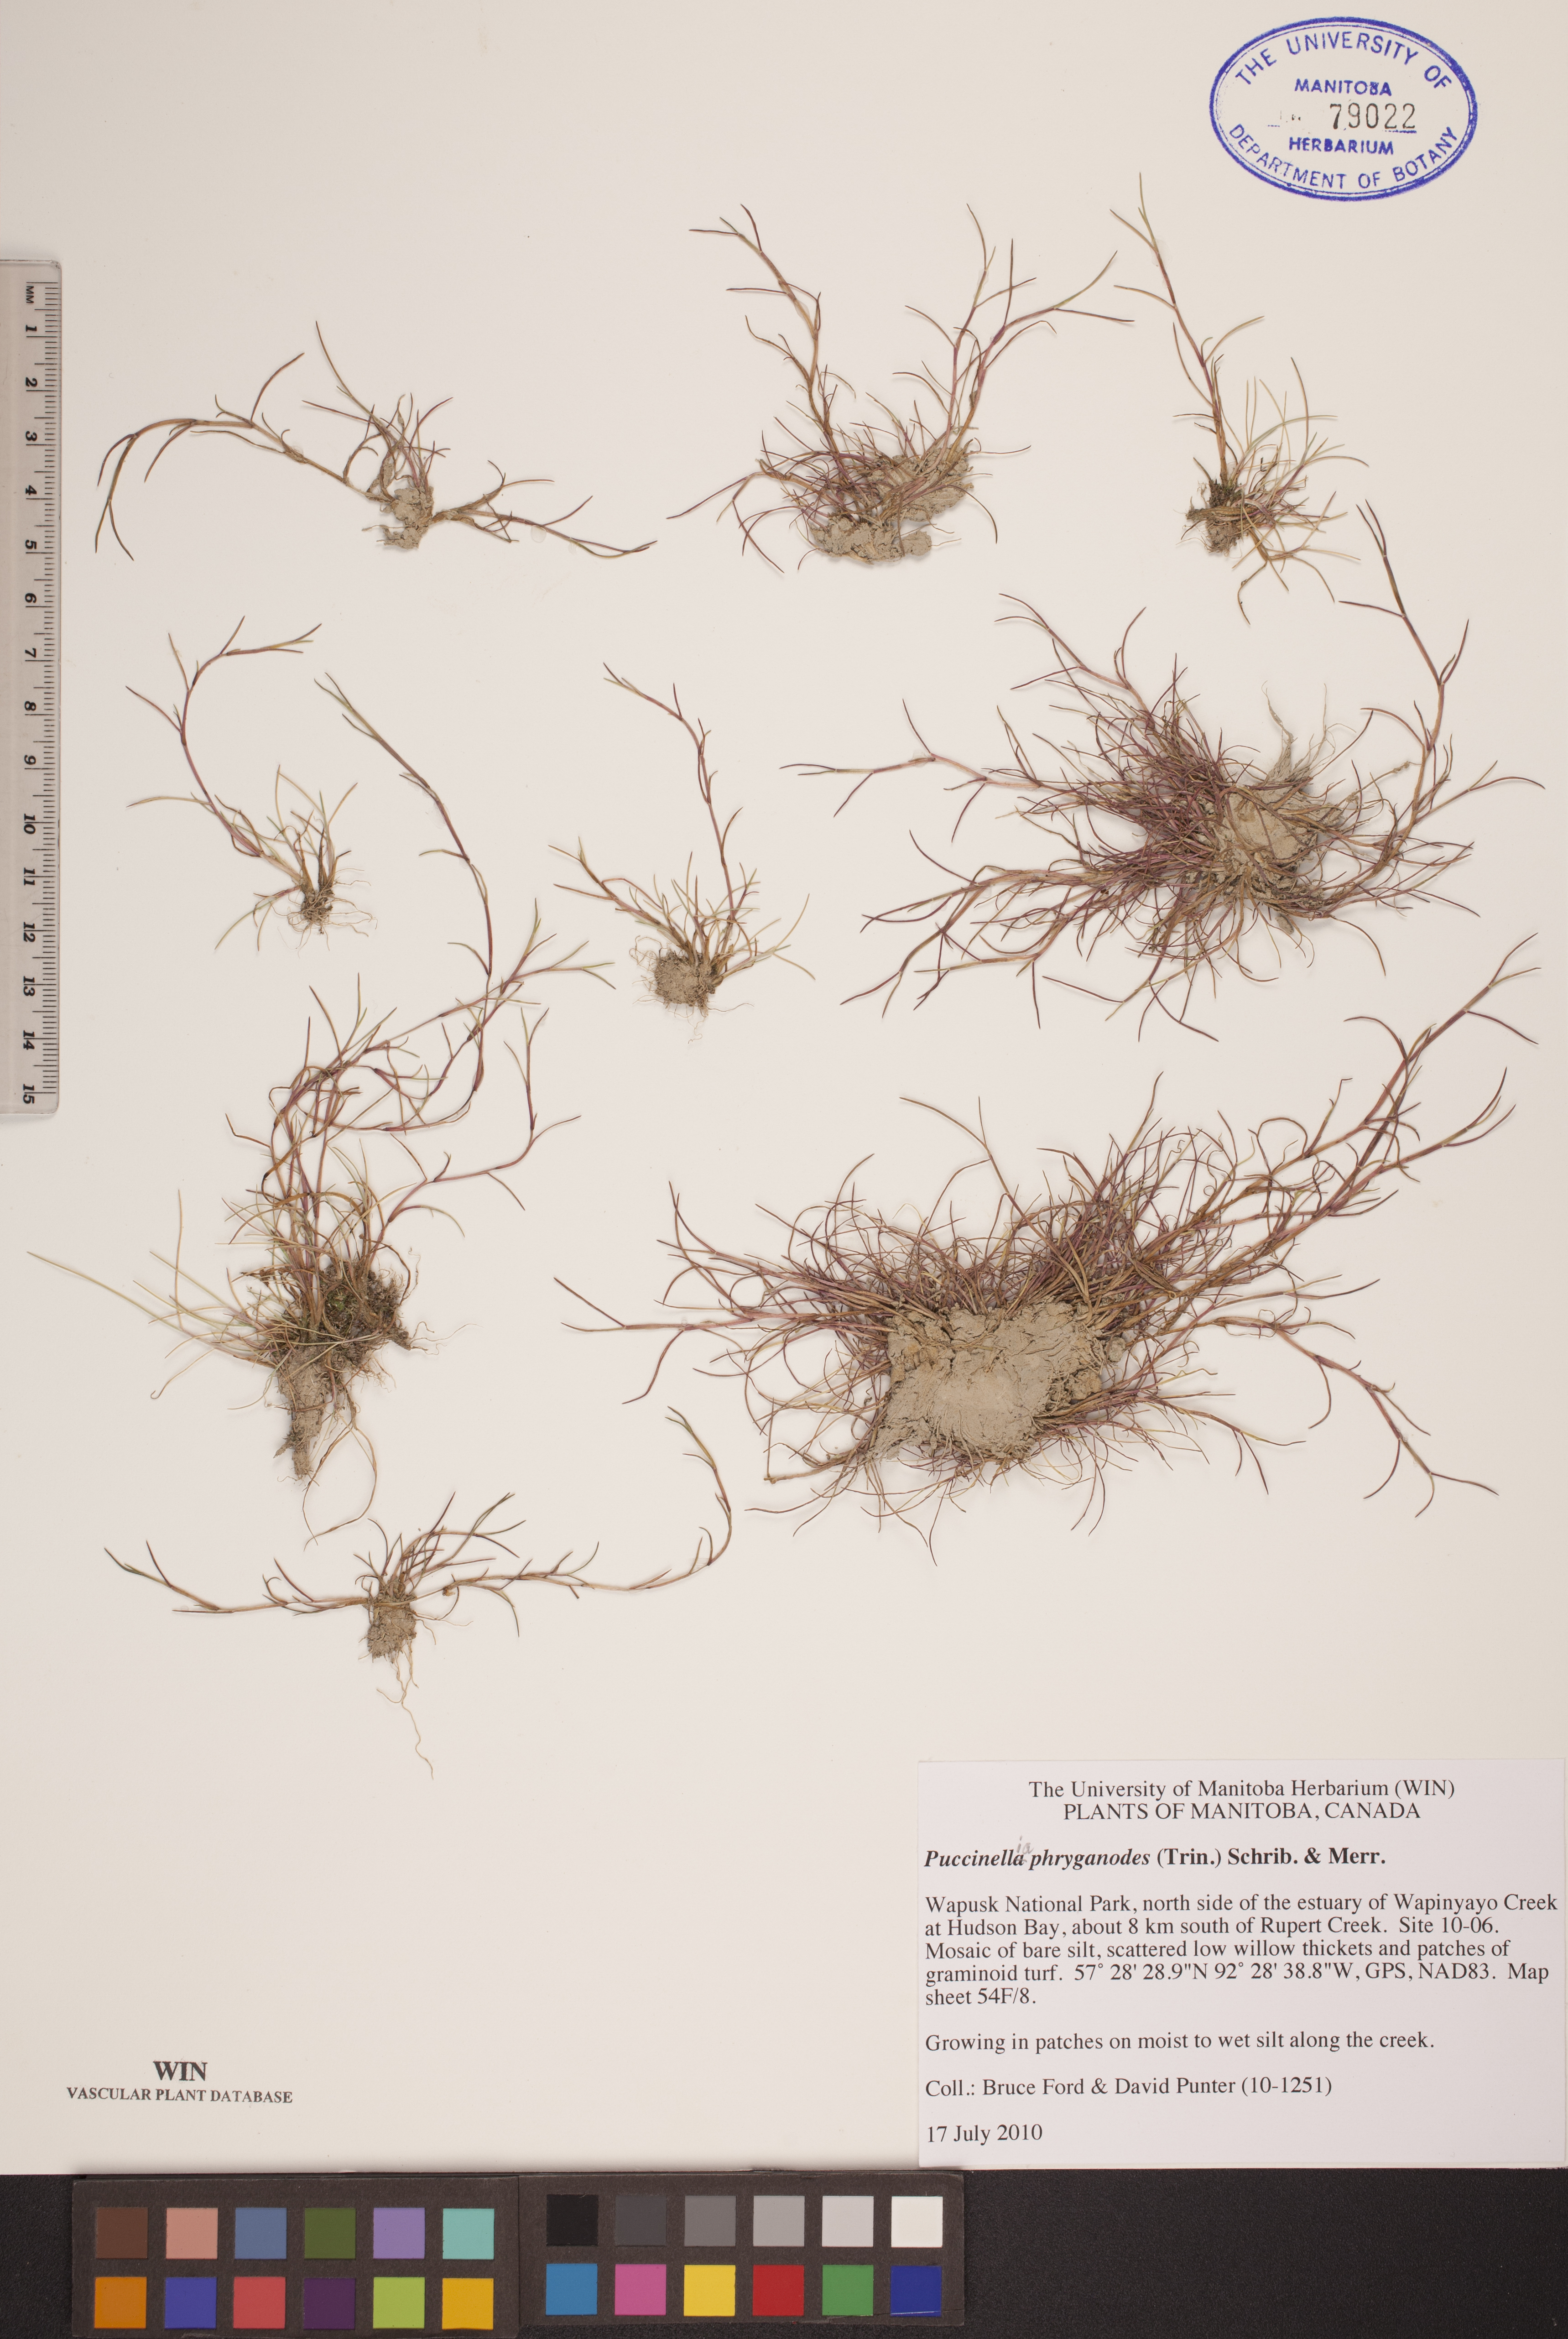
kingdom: Plantae
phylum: Tracheophyta
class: Liliopsida
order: Poales
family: Poaceae
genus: Puccinellia
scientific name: Puccinellia phryganodes
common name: Creeping alkaligrass
